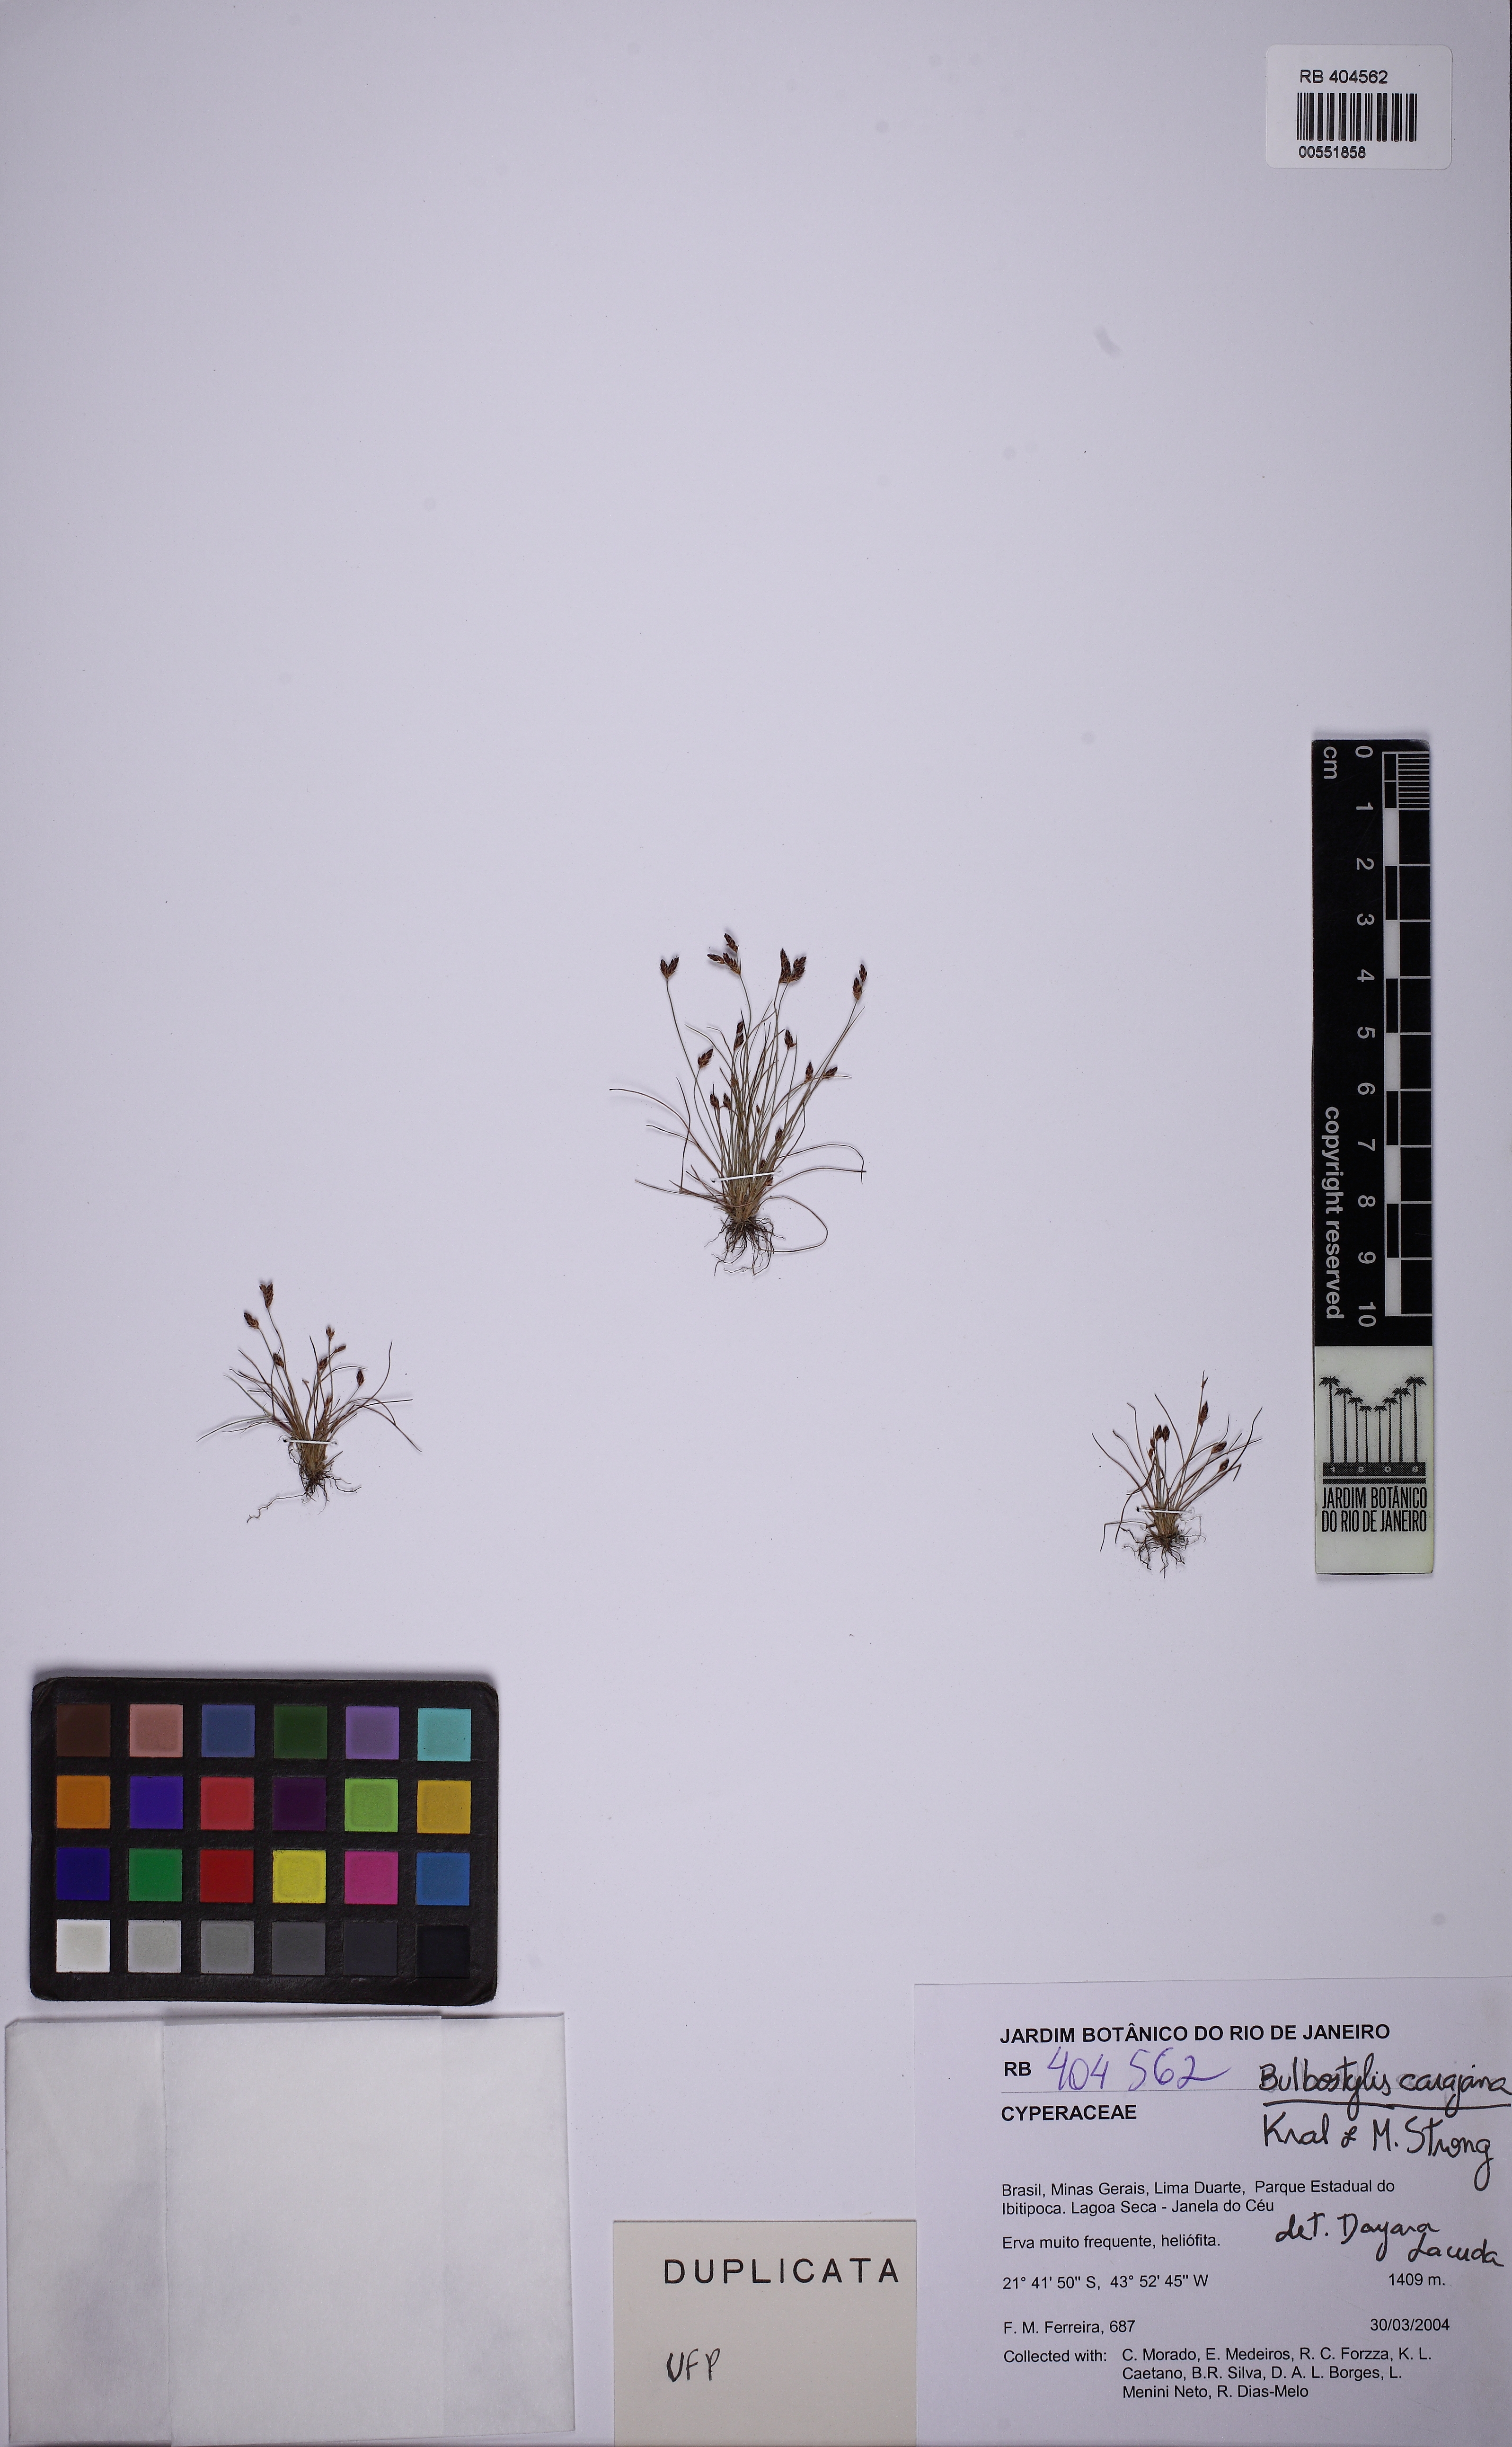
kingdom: Plantae
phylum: Tracheophyta
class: Liliopsida
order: Poales
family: Cyperaceae
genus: Bulbostylis
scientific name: Bulbostylis capillaris
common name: Densetuft hairsedge
